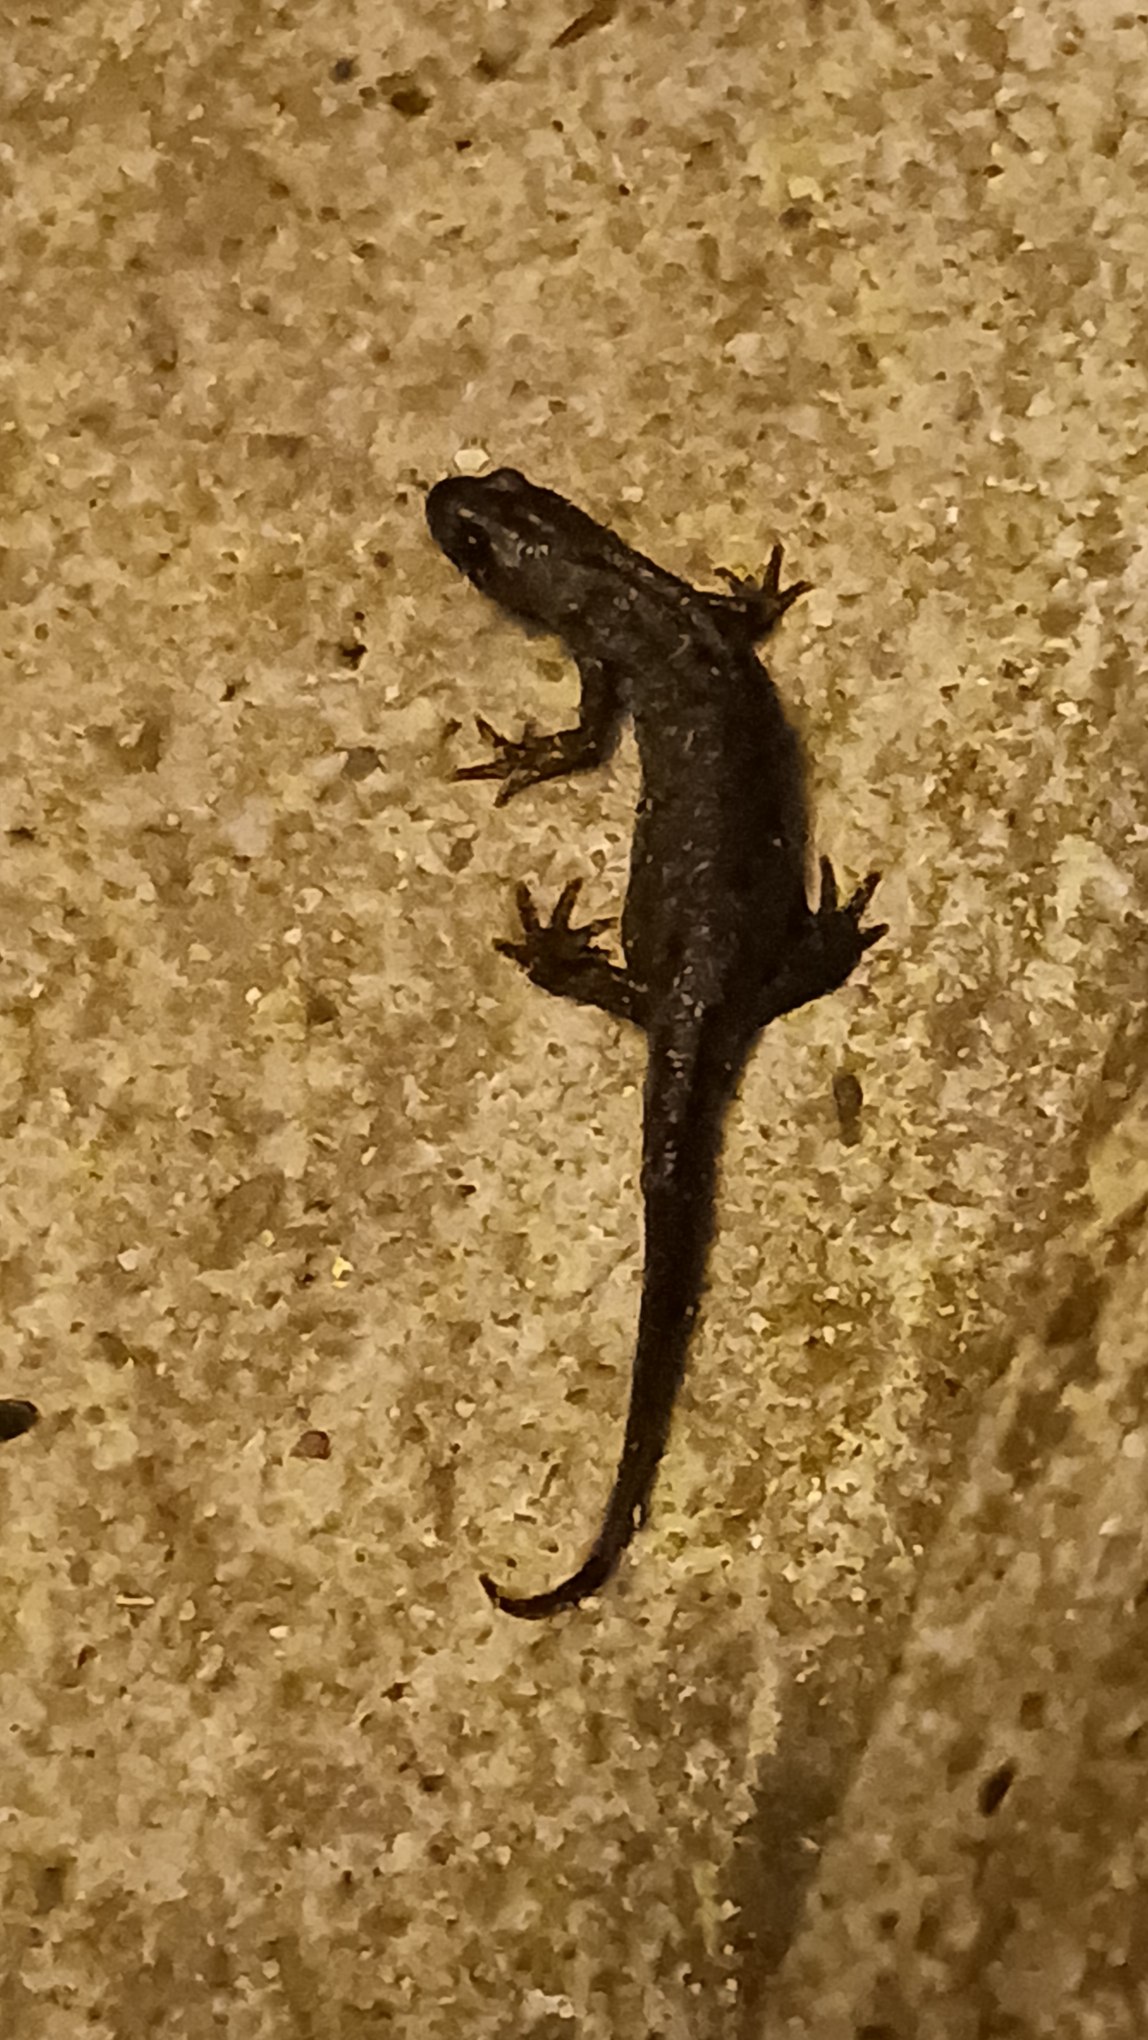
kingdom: Animalia
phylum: Chordata
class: Amphibia
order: Caudata
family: Salamandridae
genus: Triturus
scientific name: Triturus cristatus
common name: Stor vandsalamander
